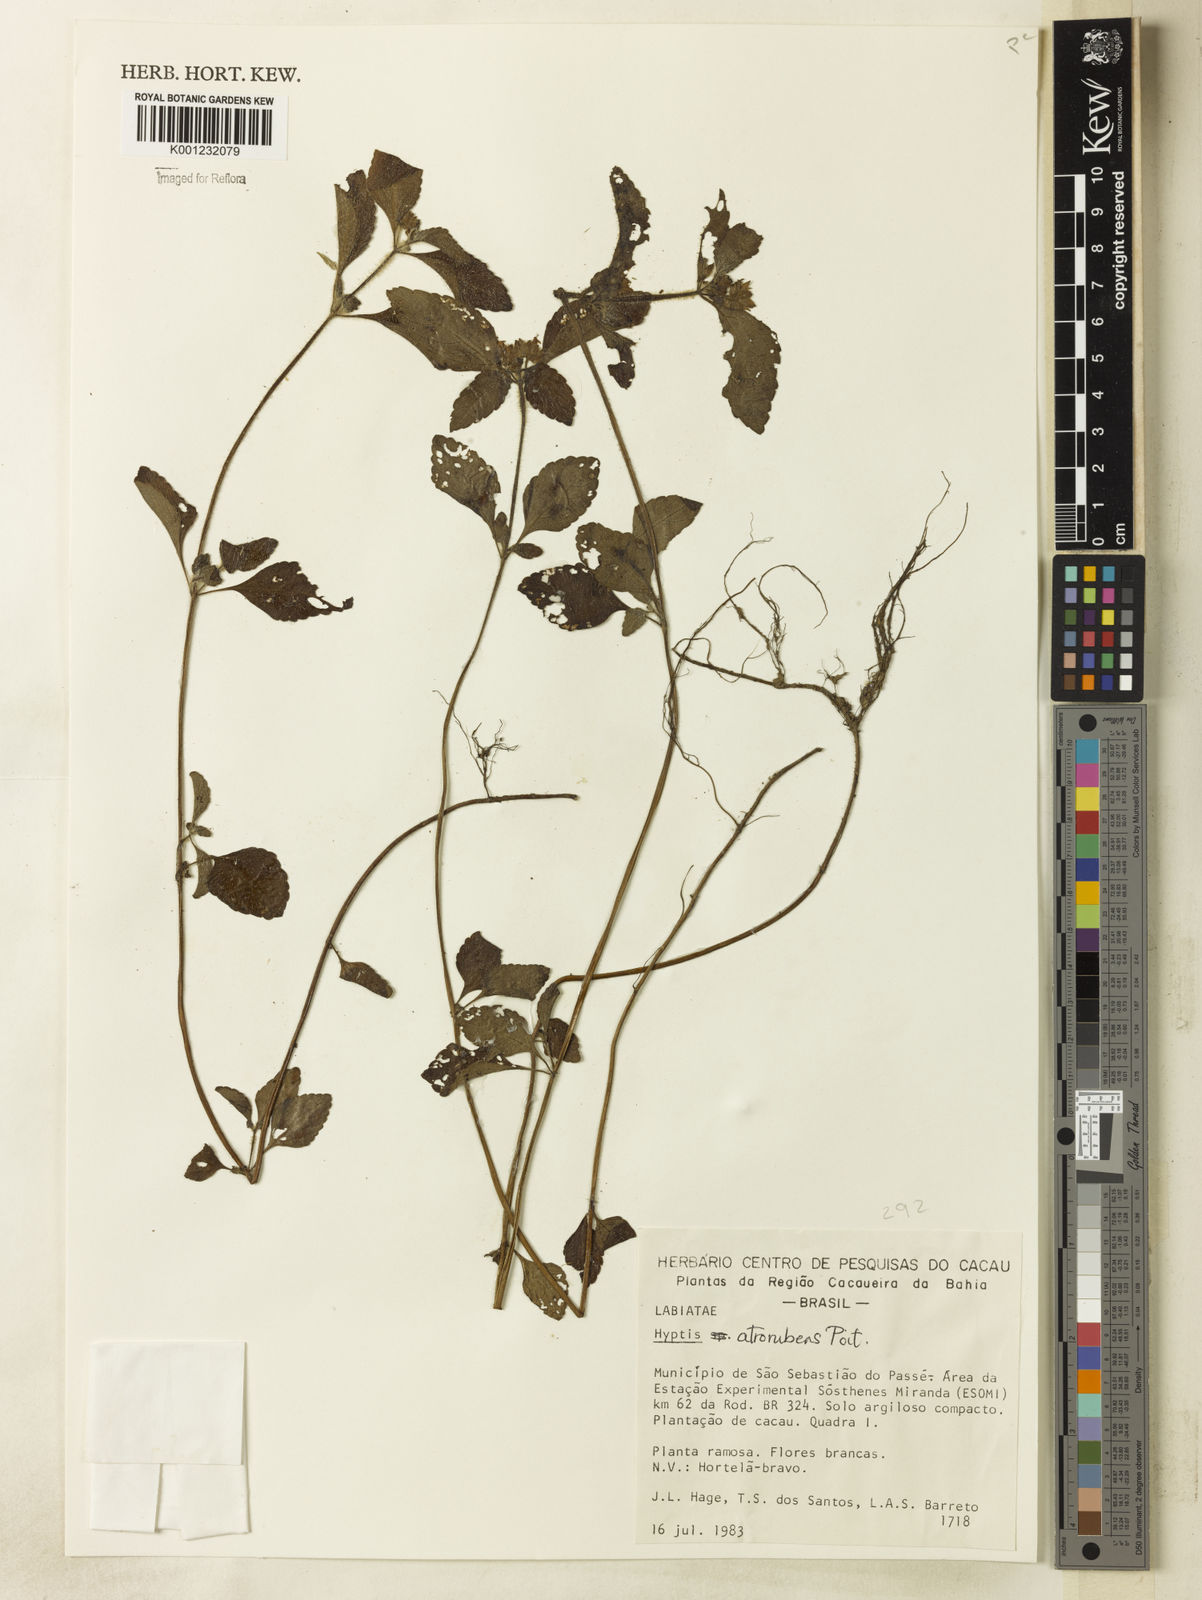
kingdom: Plantae
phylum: Tracheophyta
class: Magnoliopsida
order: Lamiales
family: Lamiaceae
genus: Hyptis
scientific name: Hyptis atrorubens
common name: Lanmant
